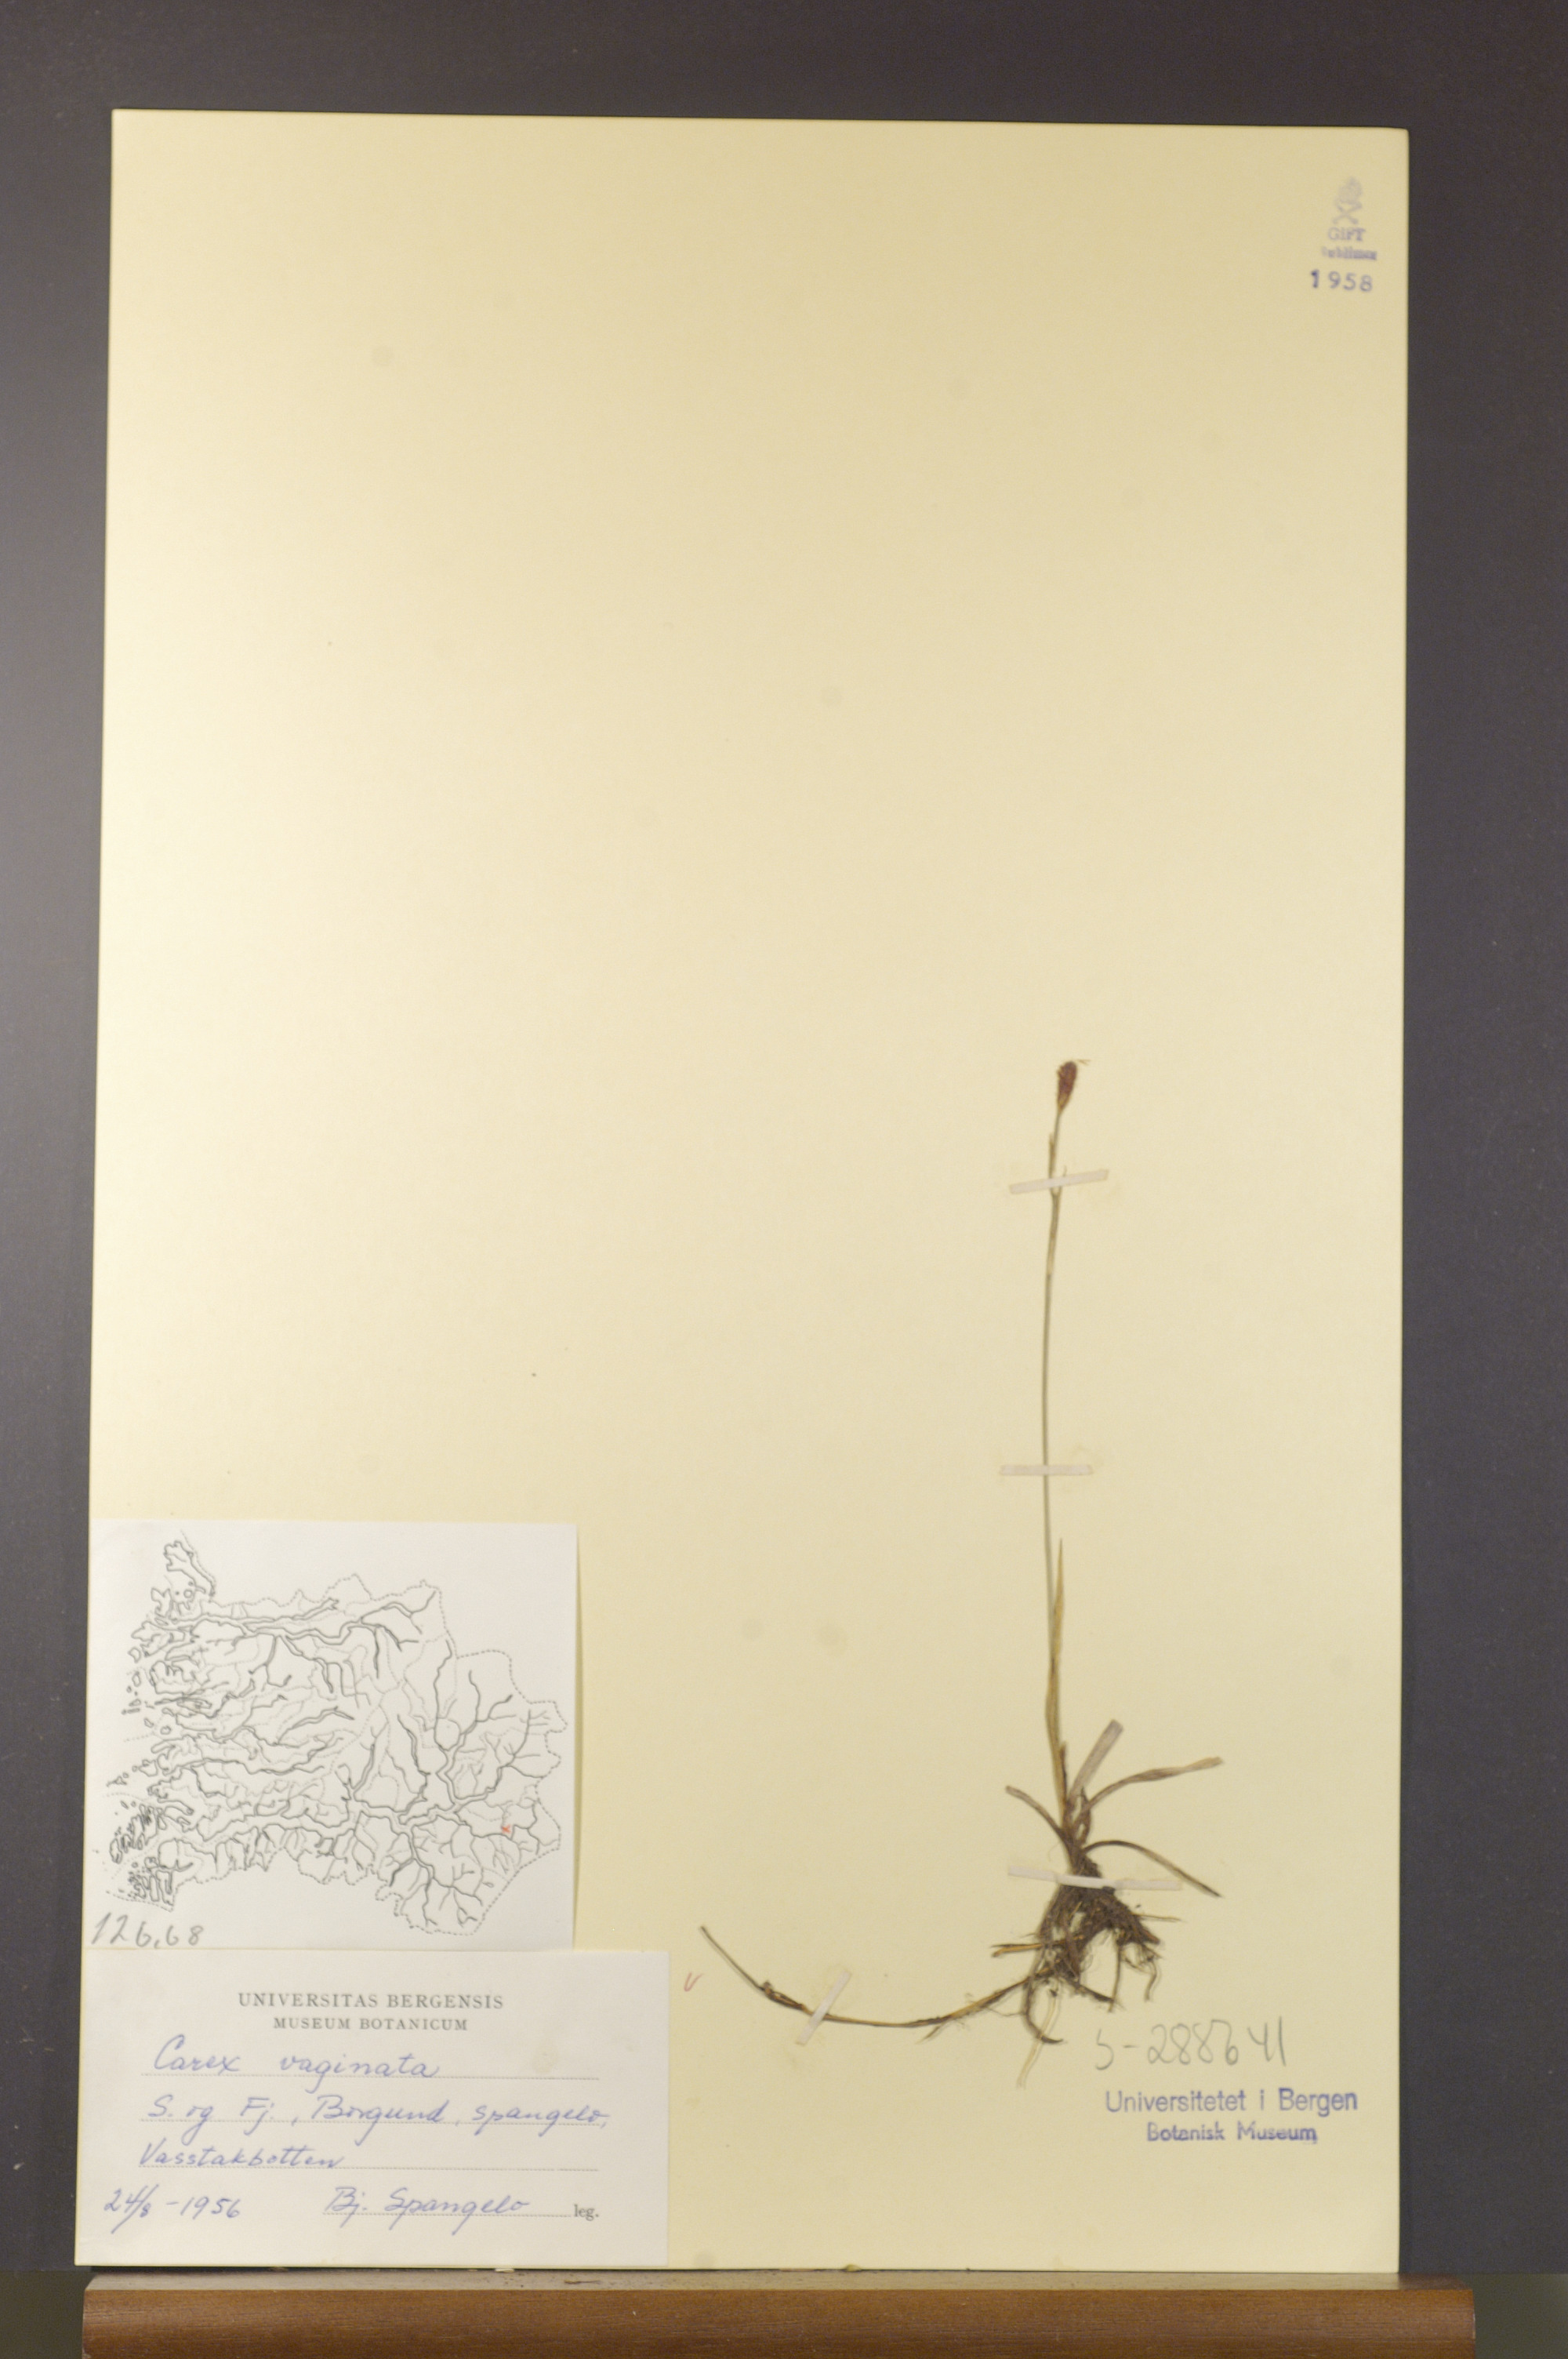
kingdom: Plantae
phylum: Tracheophyta
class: Liliopsida
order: Poales
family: Cyperaceae
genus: Carex
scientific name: Carex vaginata
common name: Sheathed sedge
